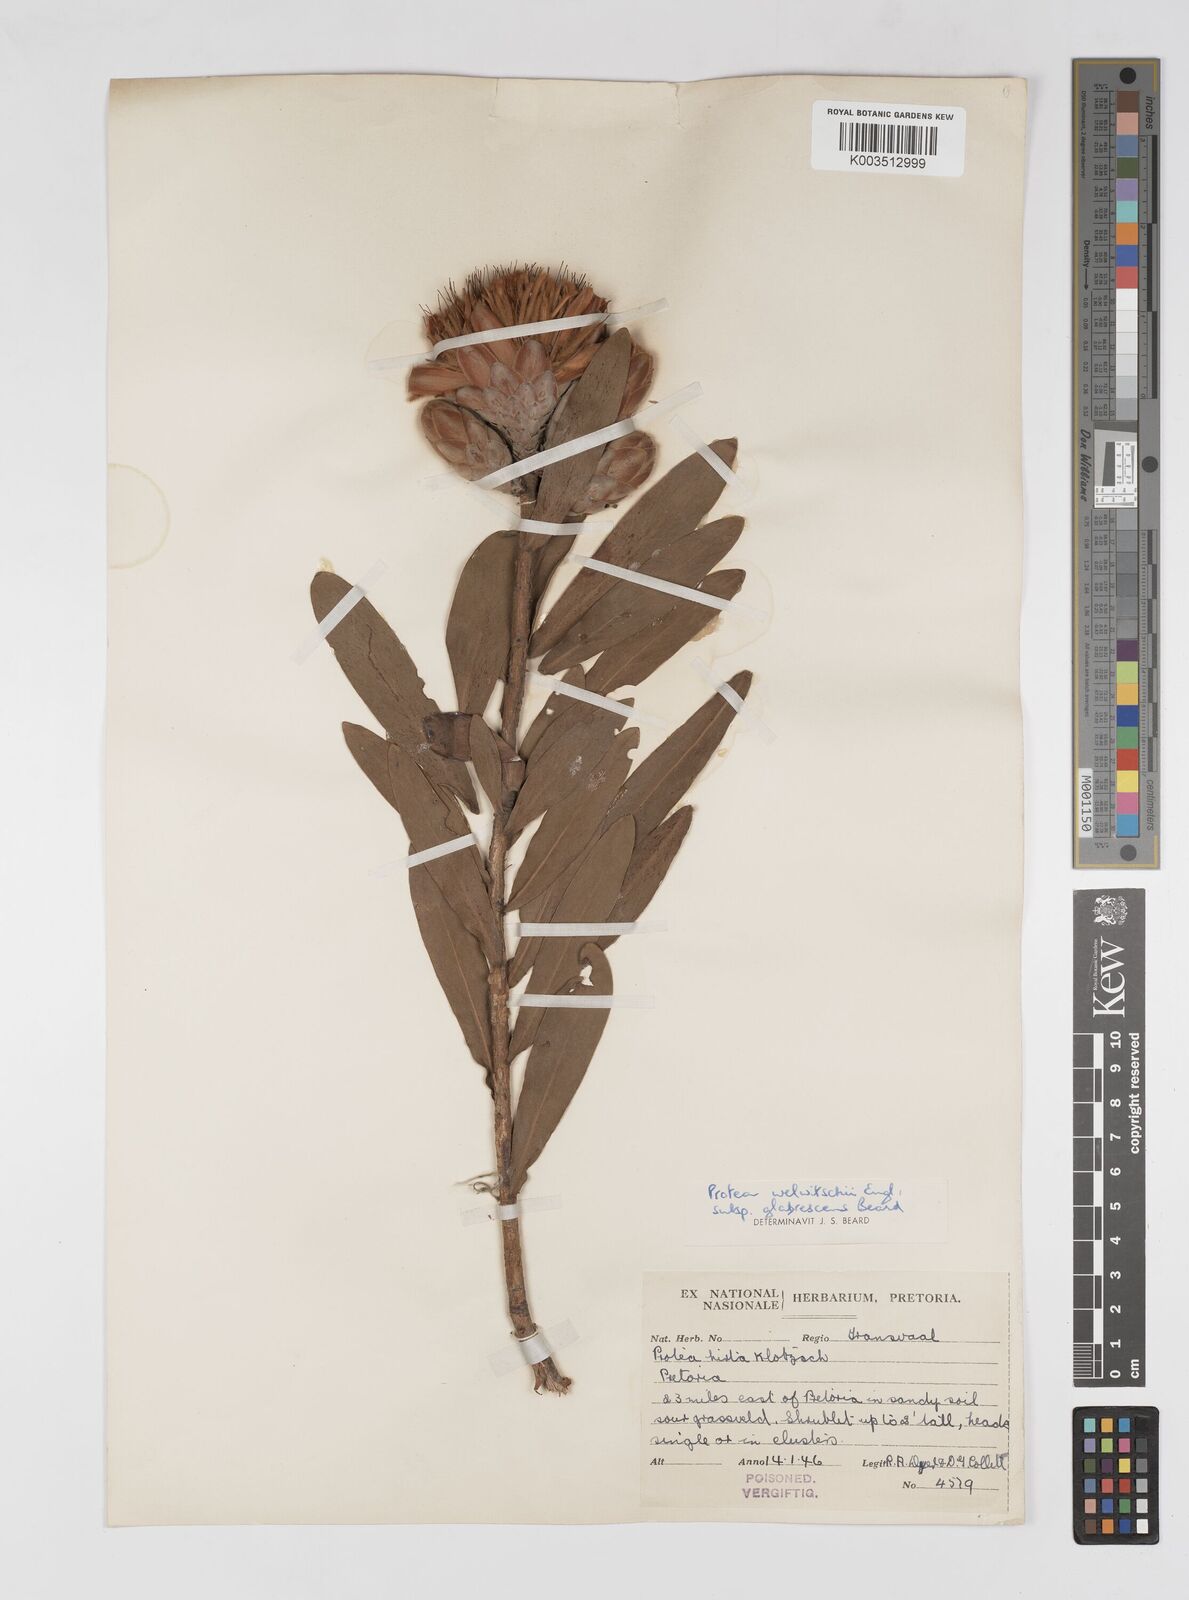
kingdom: Plantae
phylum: Tracheophyta
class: Magnoliopsida
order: Proteales
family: Proteaceae
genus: Protea
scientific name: Protea welwitschii
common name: Cluster-head protea
